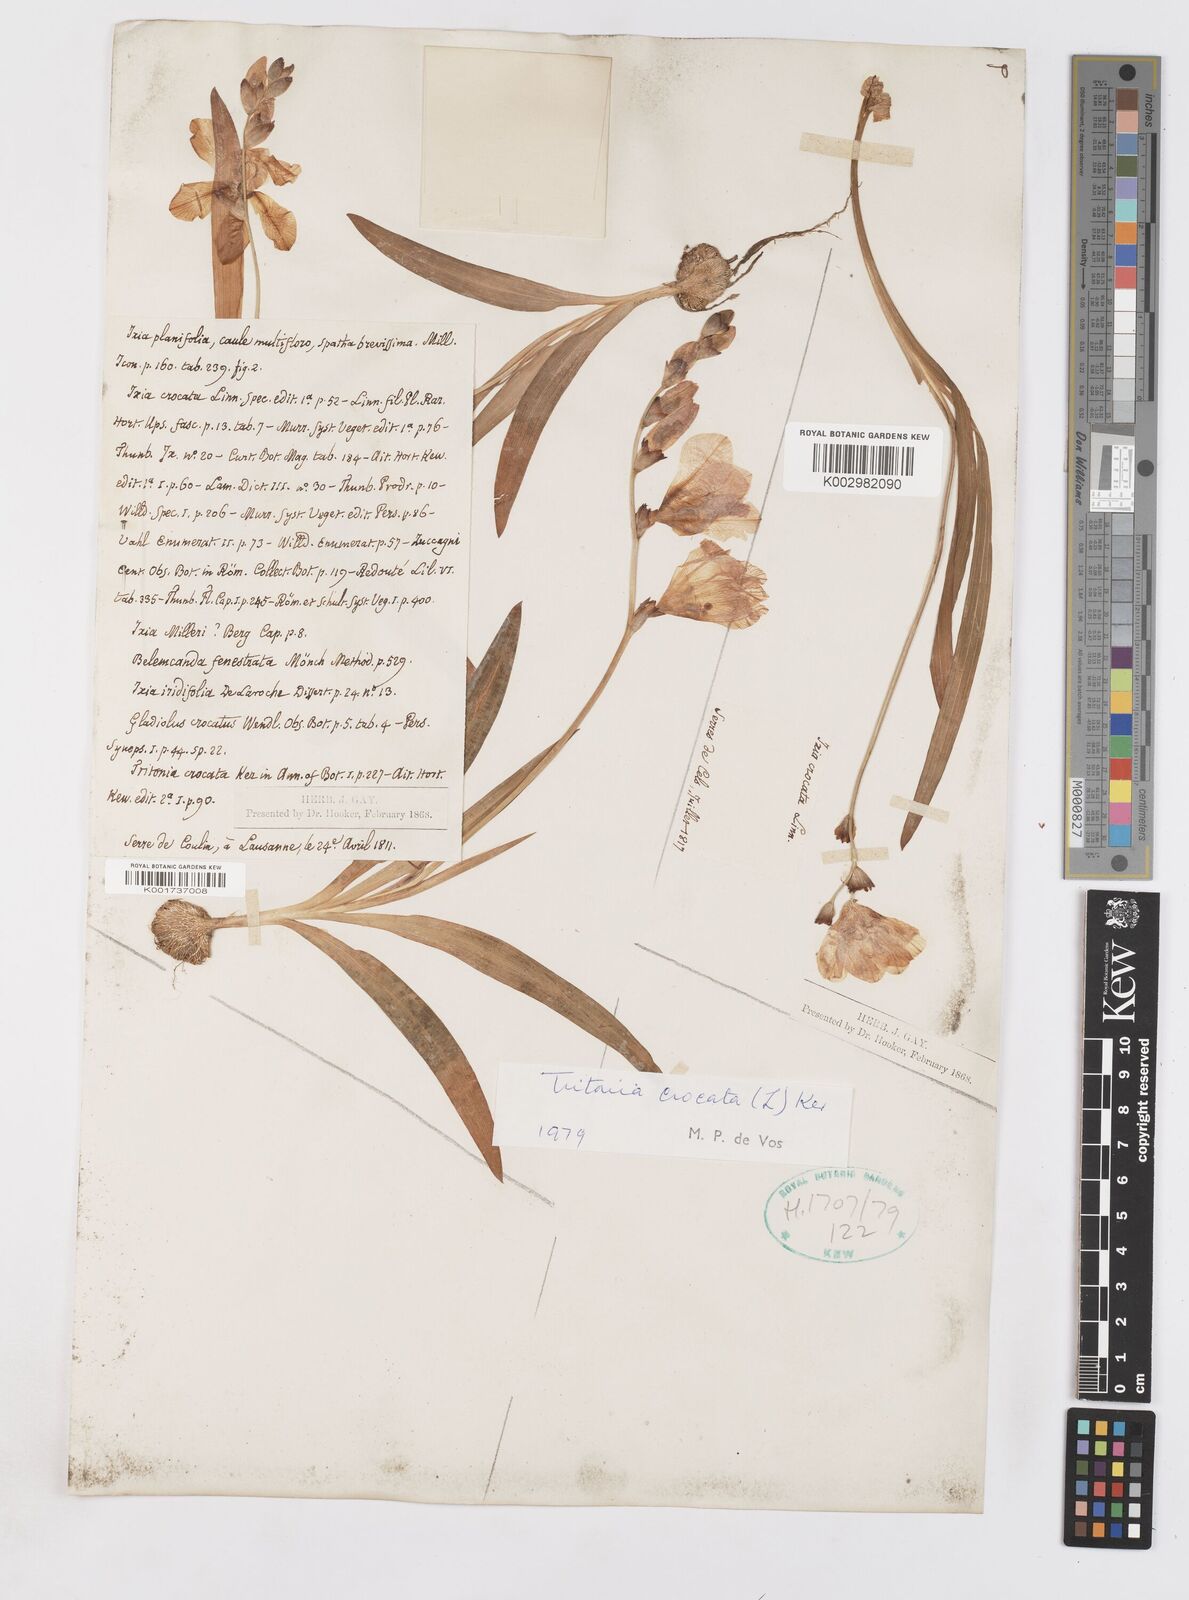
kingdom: Plantae
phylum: Tracheophyta
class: Liliopsida
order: Asparagales
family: Iridaceae
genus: Tritonia
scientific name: Tritonia crocata
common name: Flame-freesia
